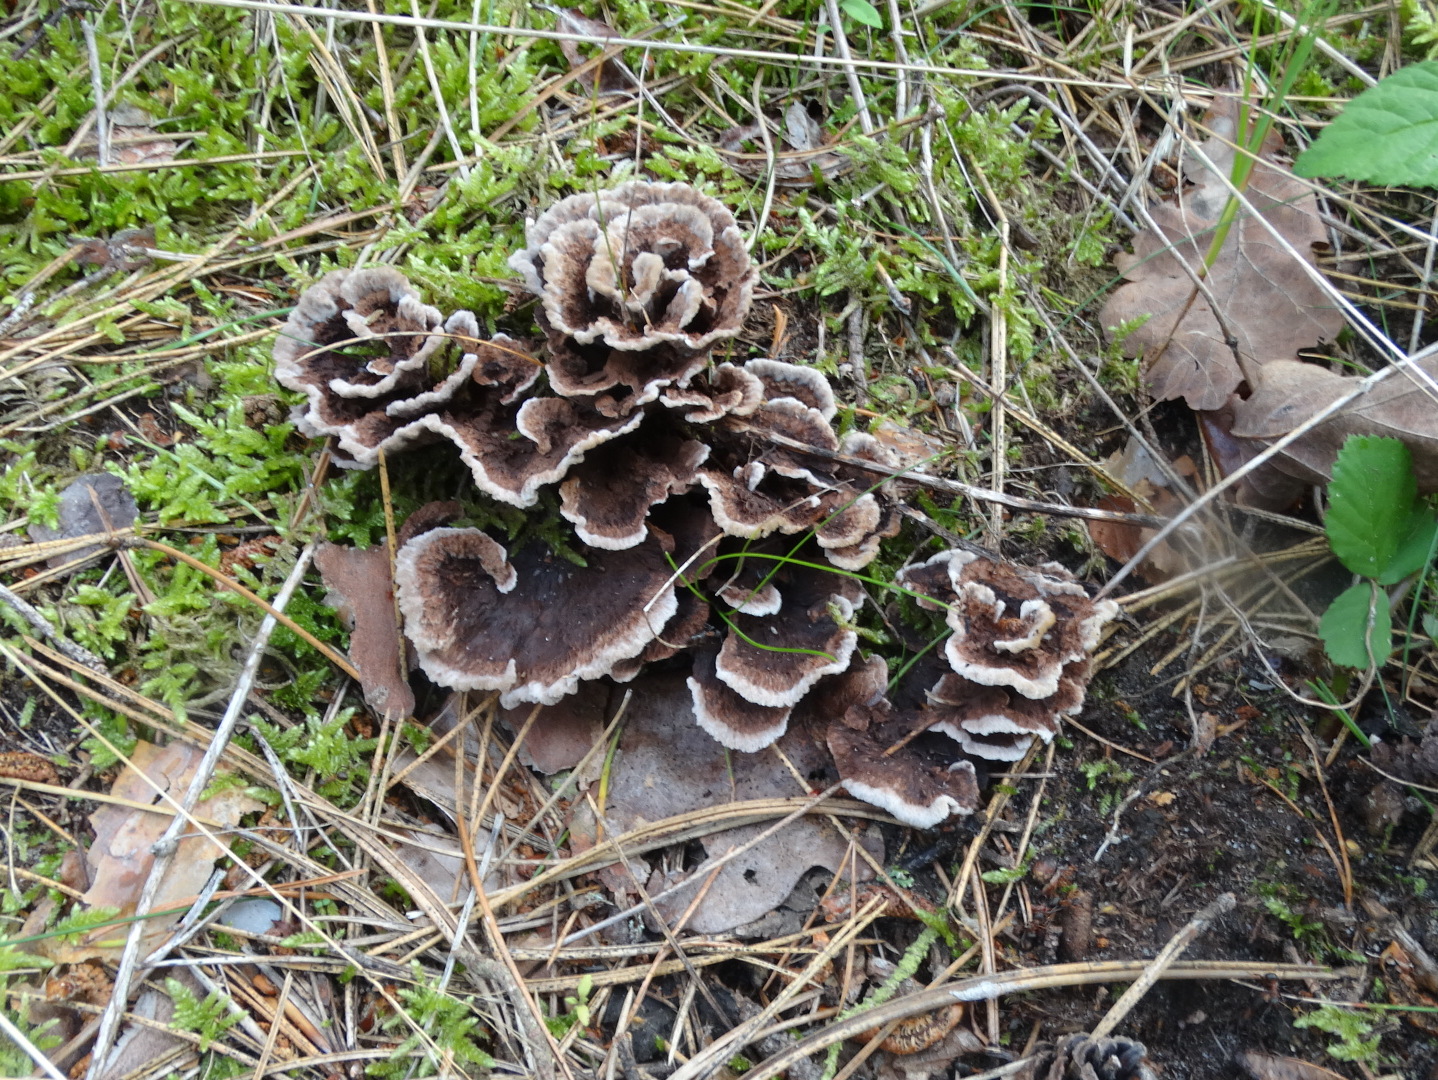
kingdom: Fungi
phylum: Basidiomycota
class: Agaricomycetes
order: Thelephorales
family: Thelephoraceae
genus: Thelephora
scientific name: Thelephora terrestris
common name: fliget frynsesvamp
